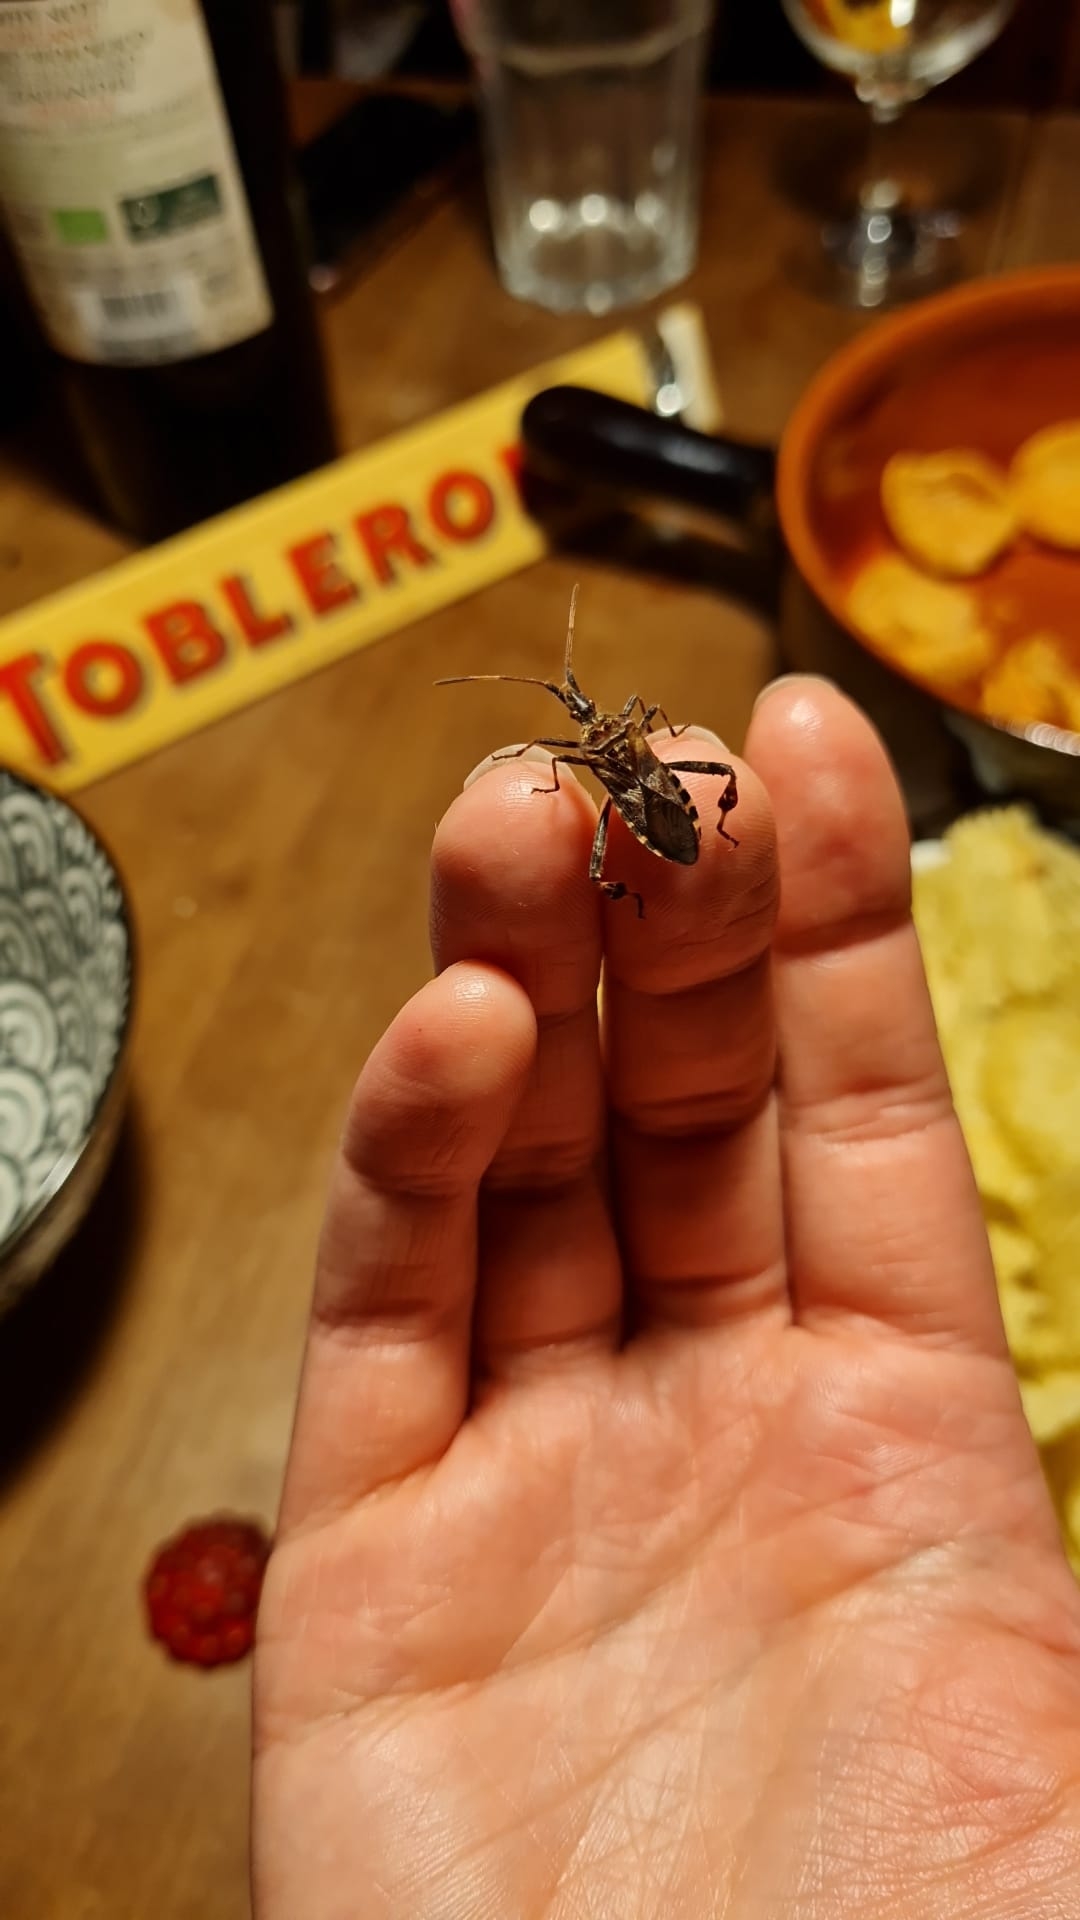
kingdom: Animalia
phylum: Arthropoda
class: Insecta
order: Hemiptera
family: Coreidae
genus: Leptoglossus
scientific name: Leptoglossus occidentalis
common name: Amerikansk fyrretæge
